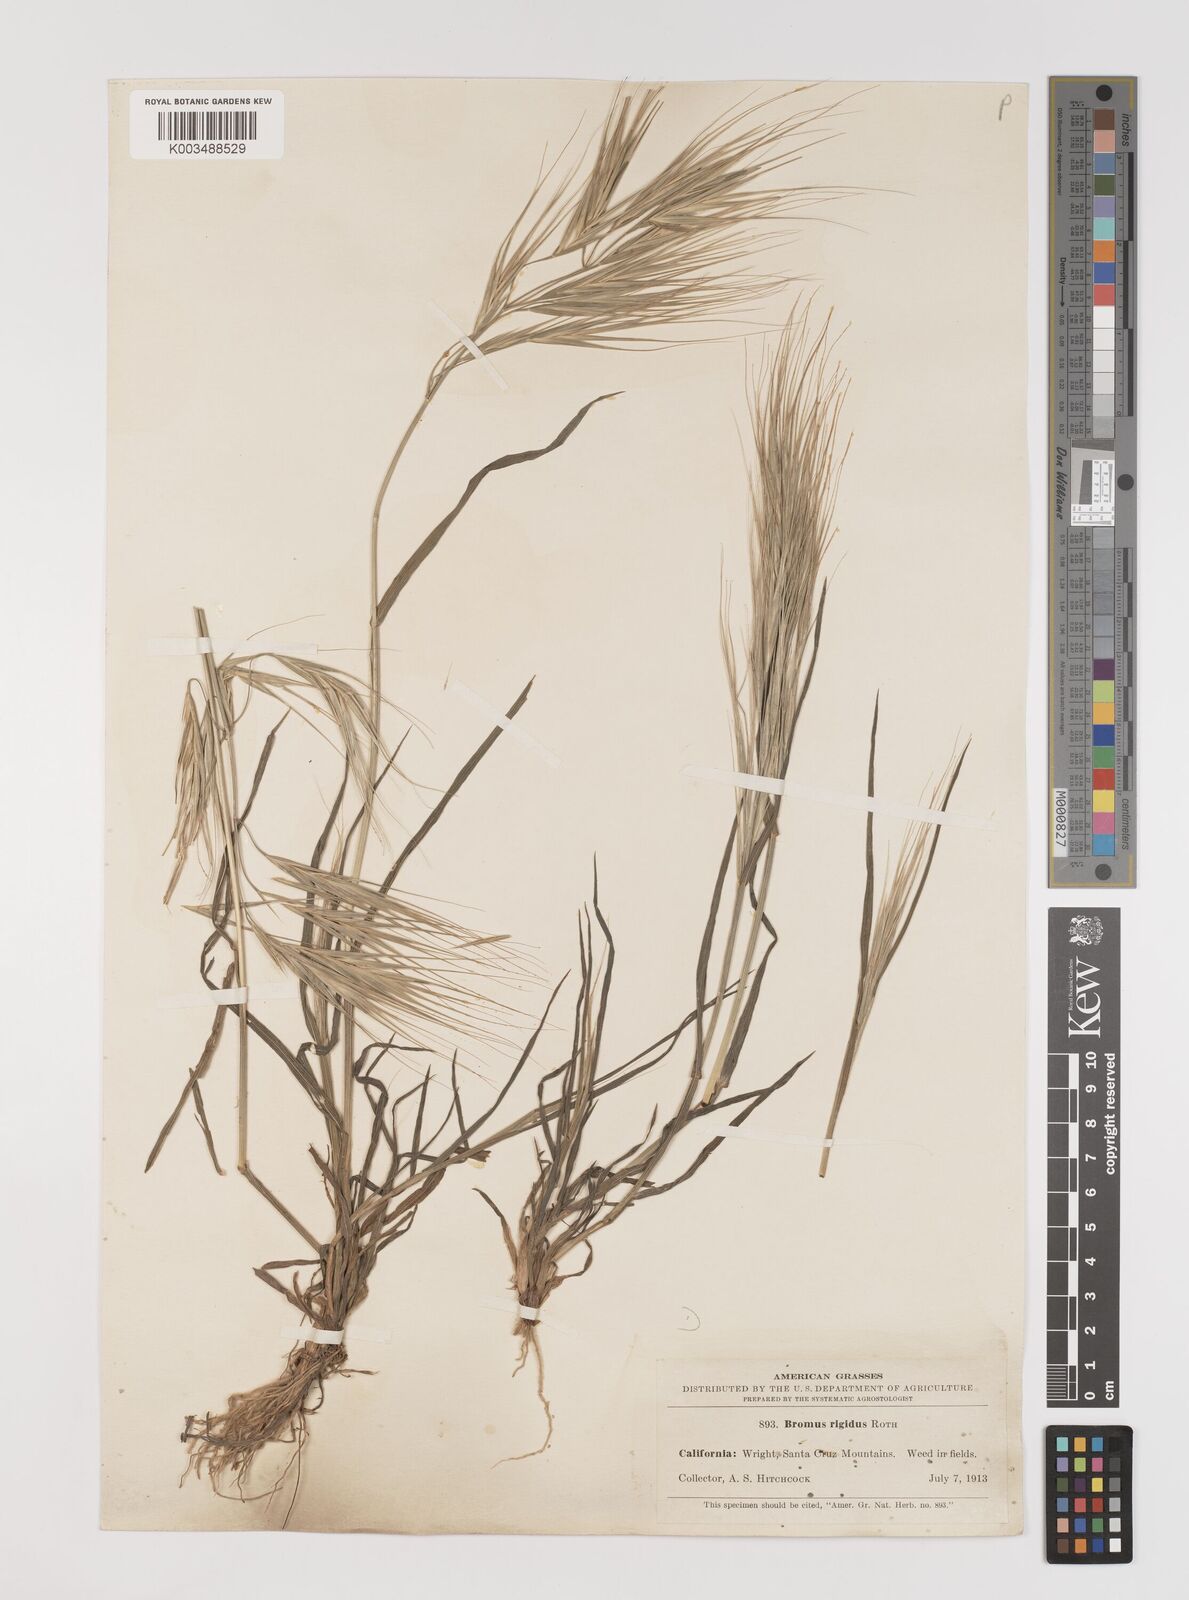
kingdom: Plantae
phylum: Tracheophyta
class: Liliopsida
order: Poales
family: Poaceae
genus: Bromus
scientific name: Bromus diandrus
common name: Ripgut brome
